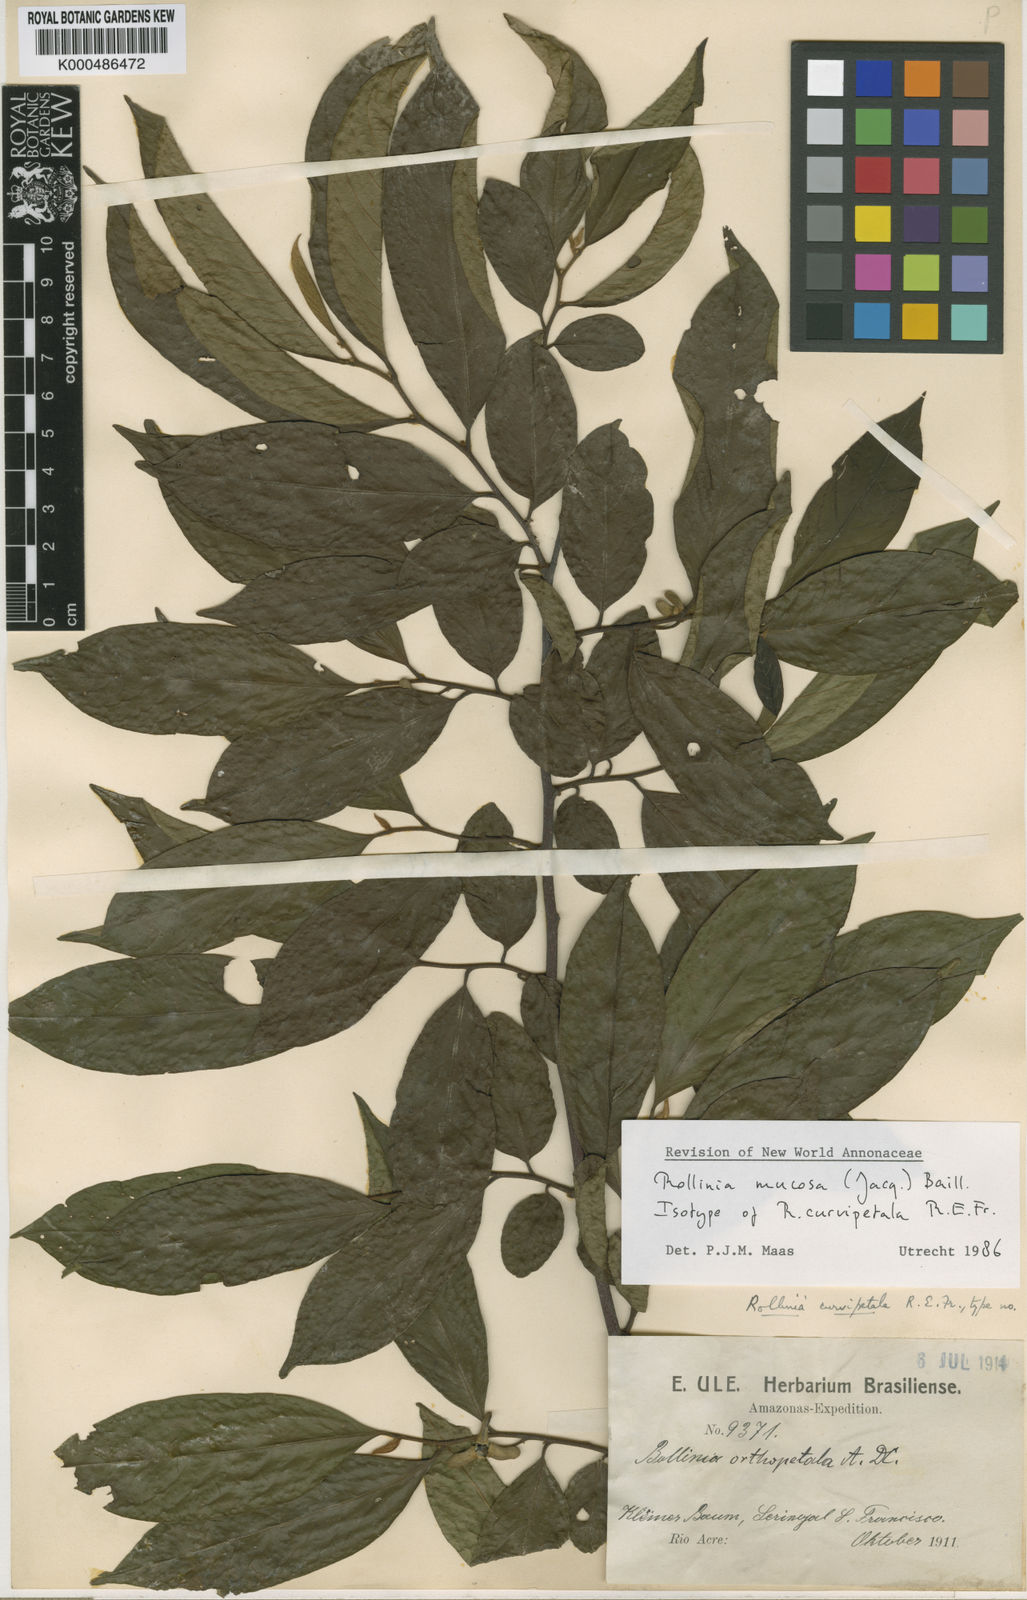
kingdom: Plantae
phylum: Tracheophyta
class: Magnoliopsida
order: Magnoliales
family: Annonaceae
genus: Annona
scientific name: Annona mucosa
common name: Sugar apple
